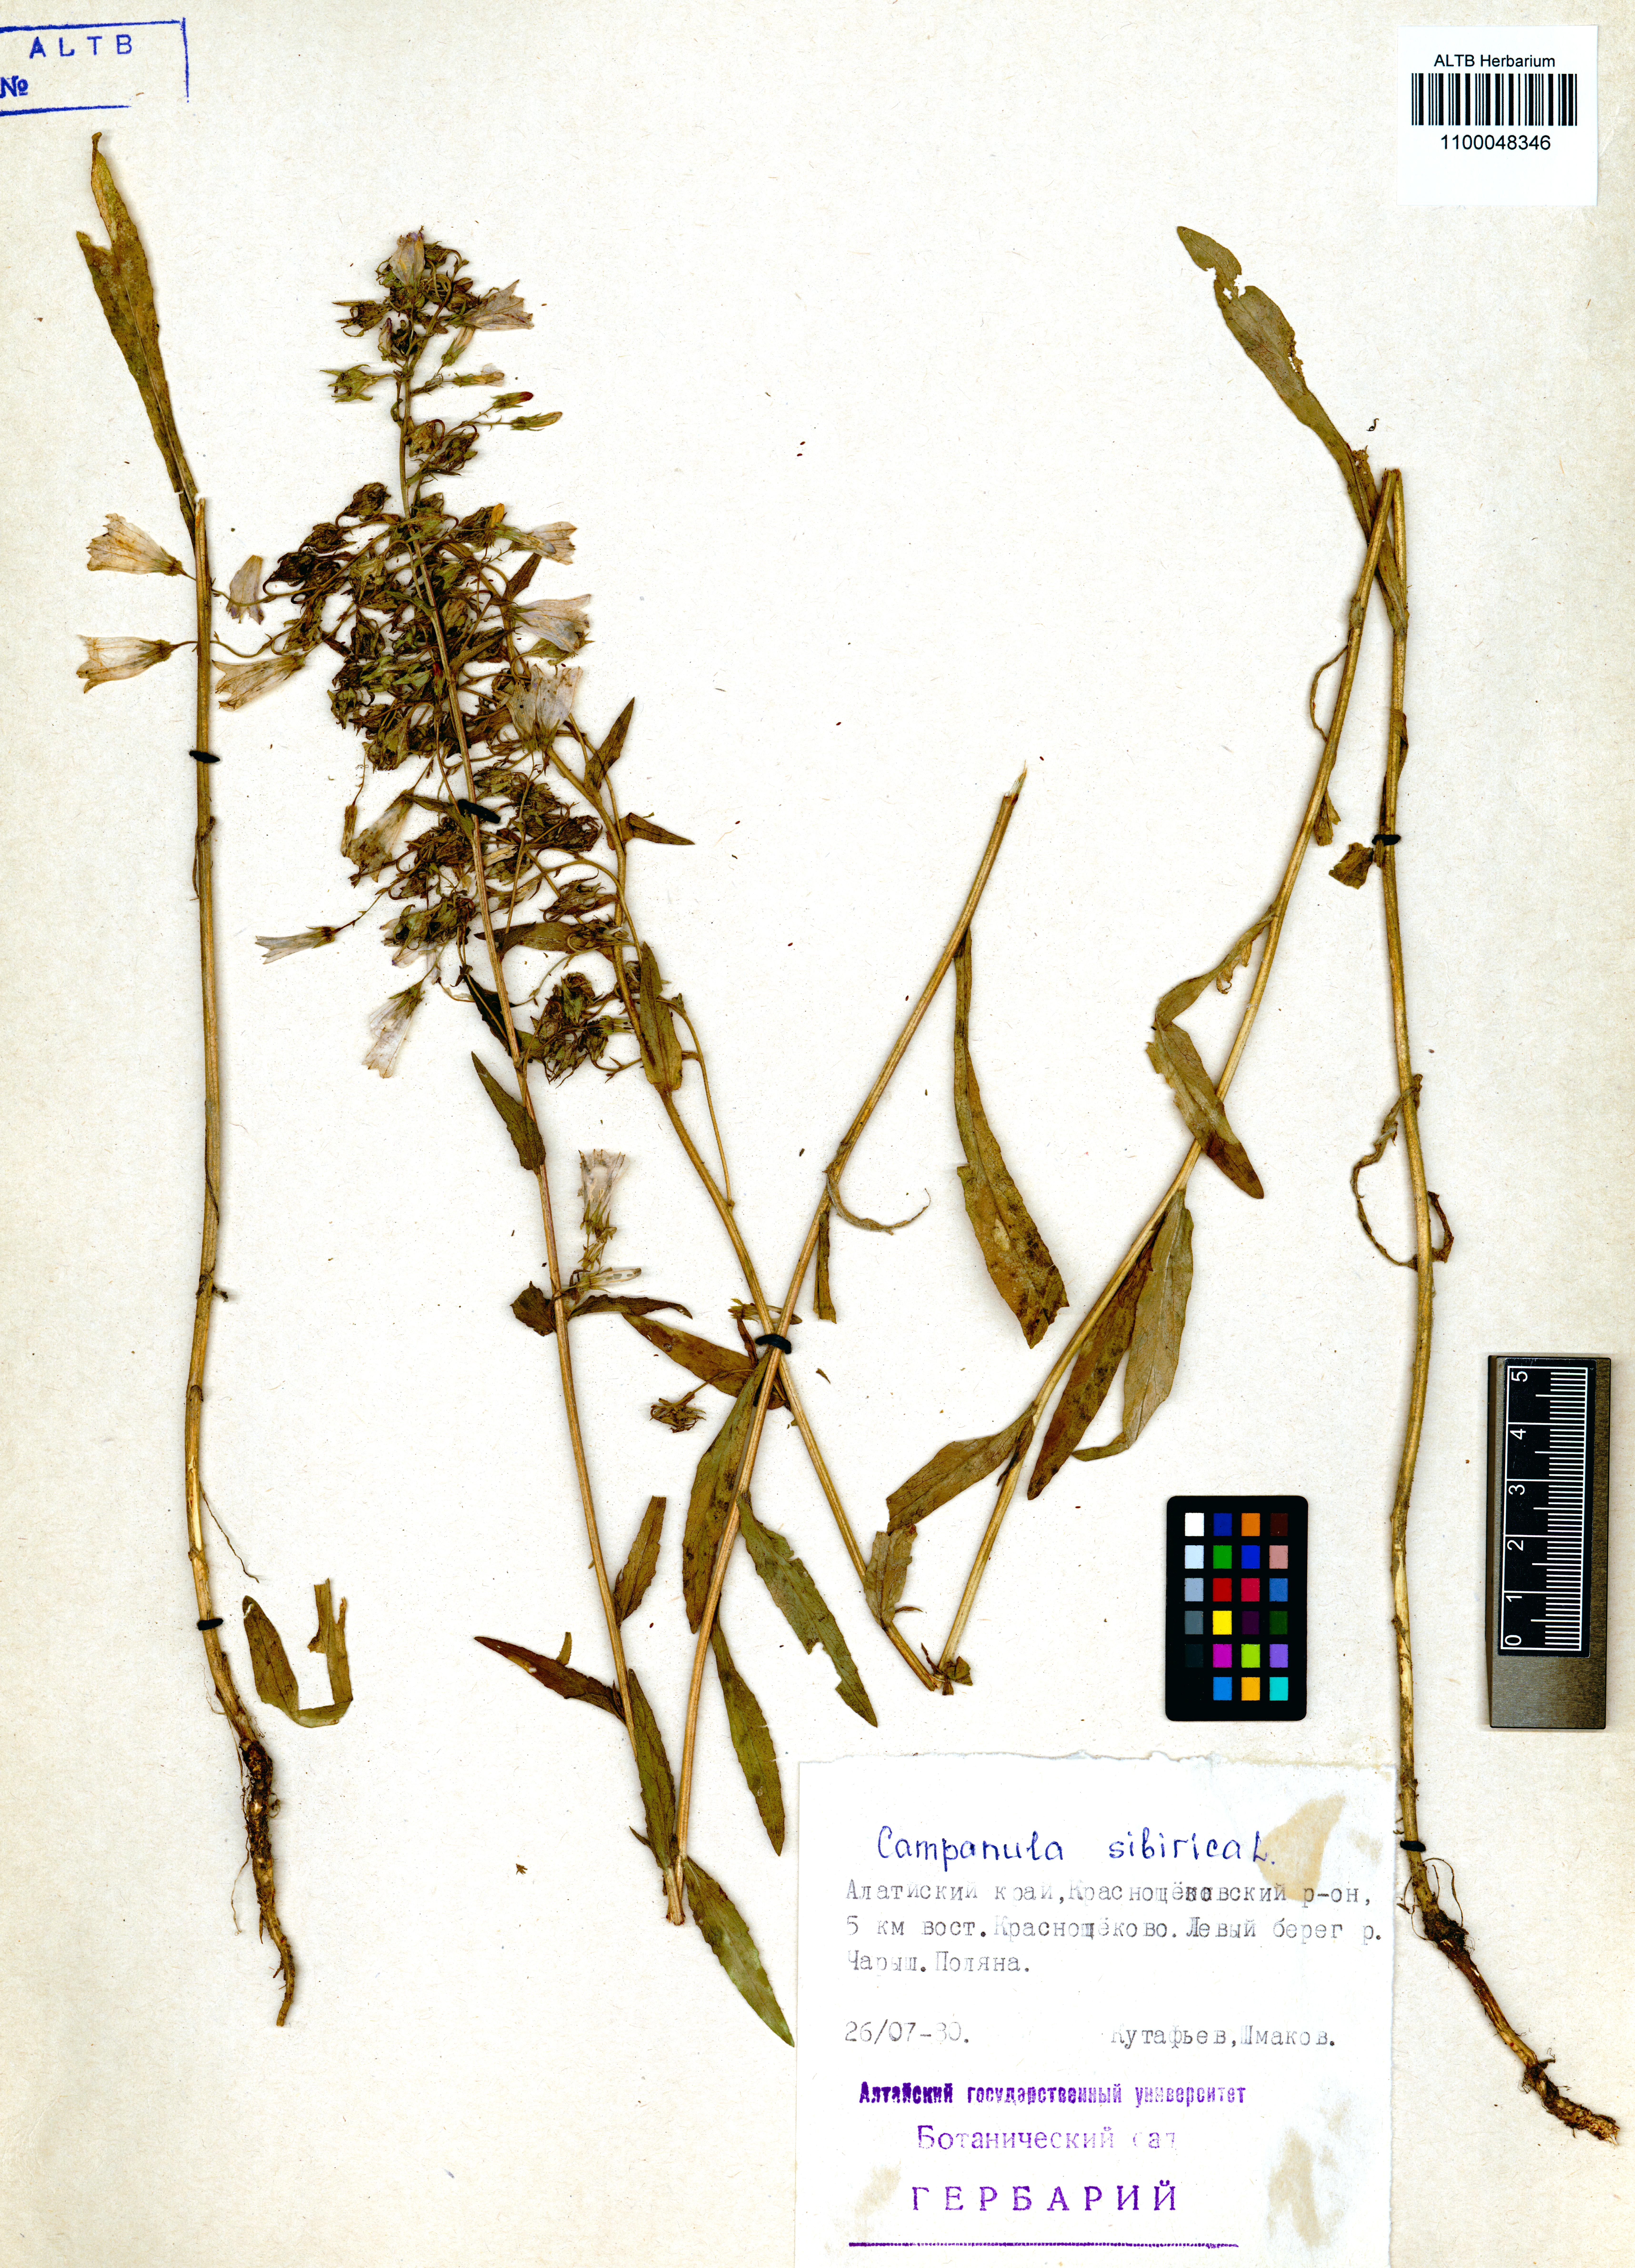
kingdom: Plantae
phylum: Tracheophyta
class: Magnoliopsida
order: Asterales
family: Campanulaceae
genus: Campanula
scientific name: Campanula sibirica
